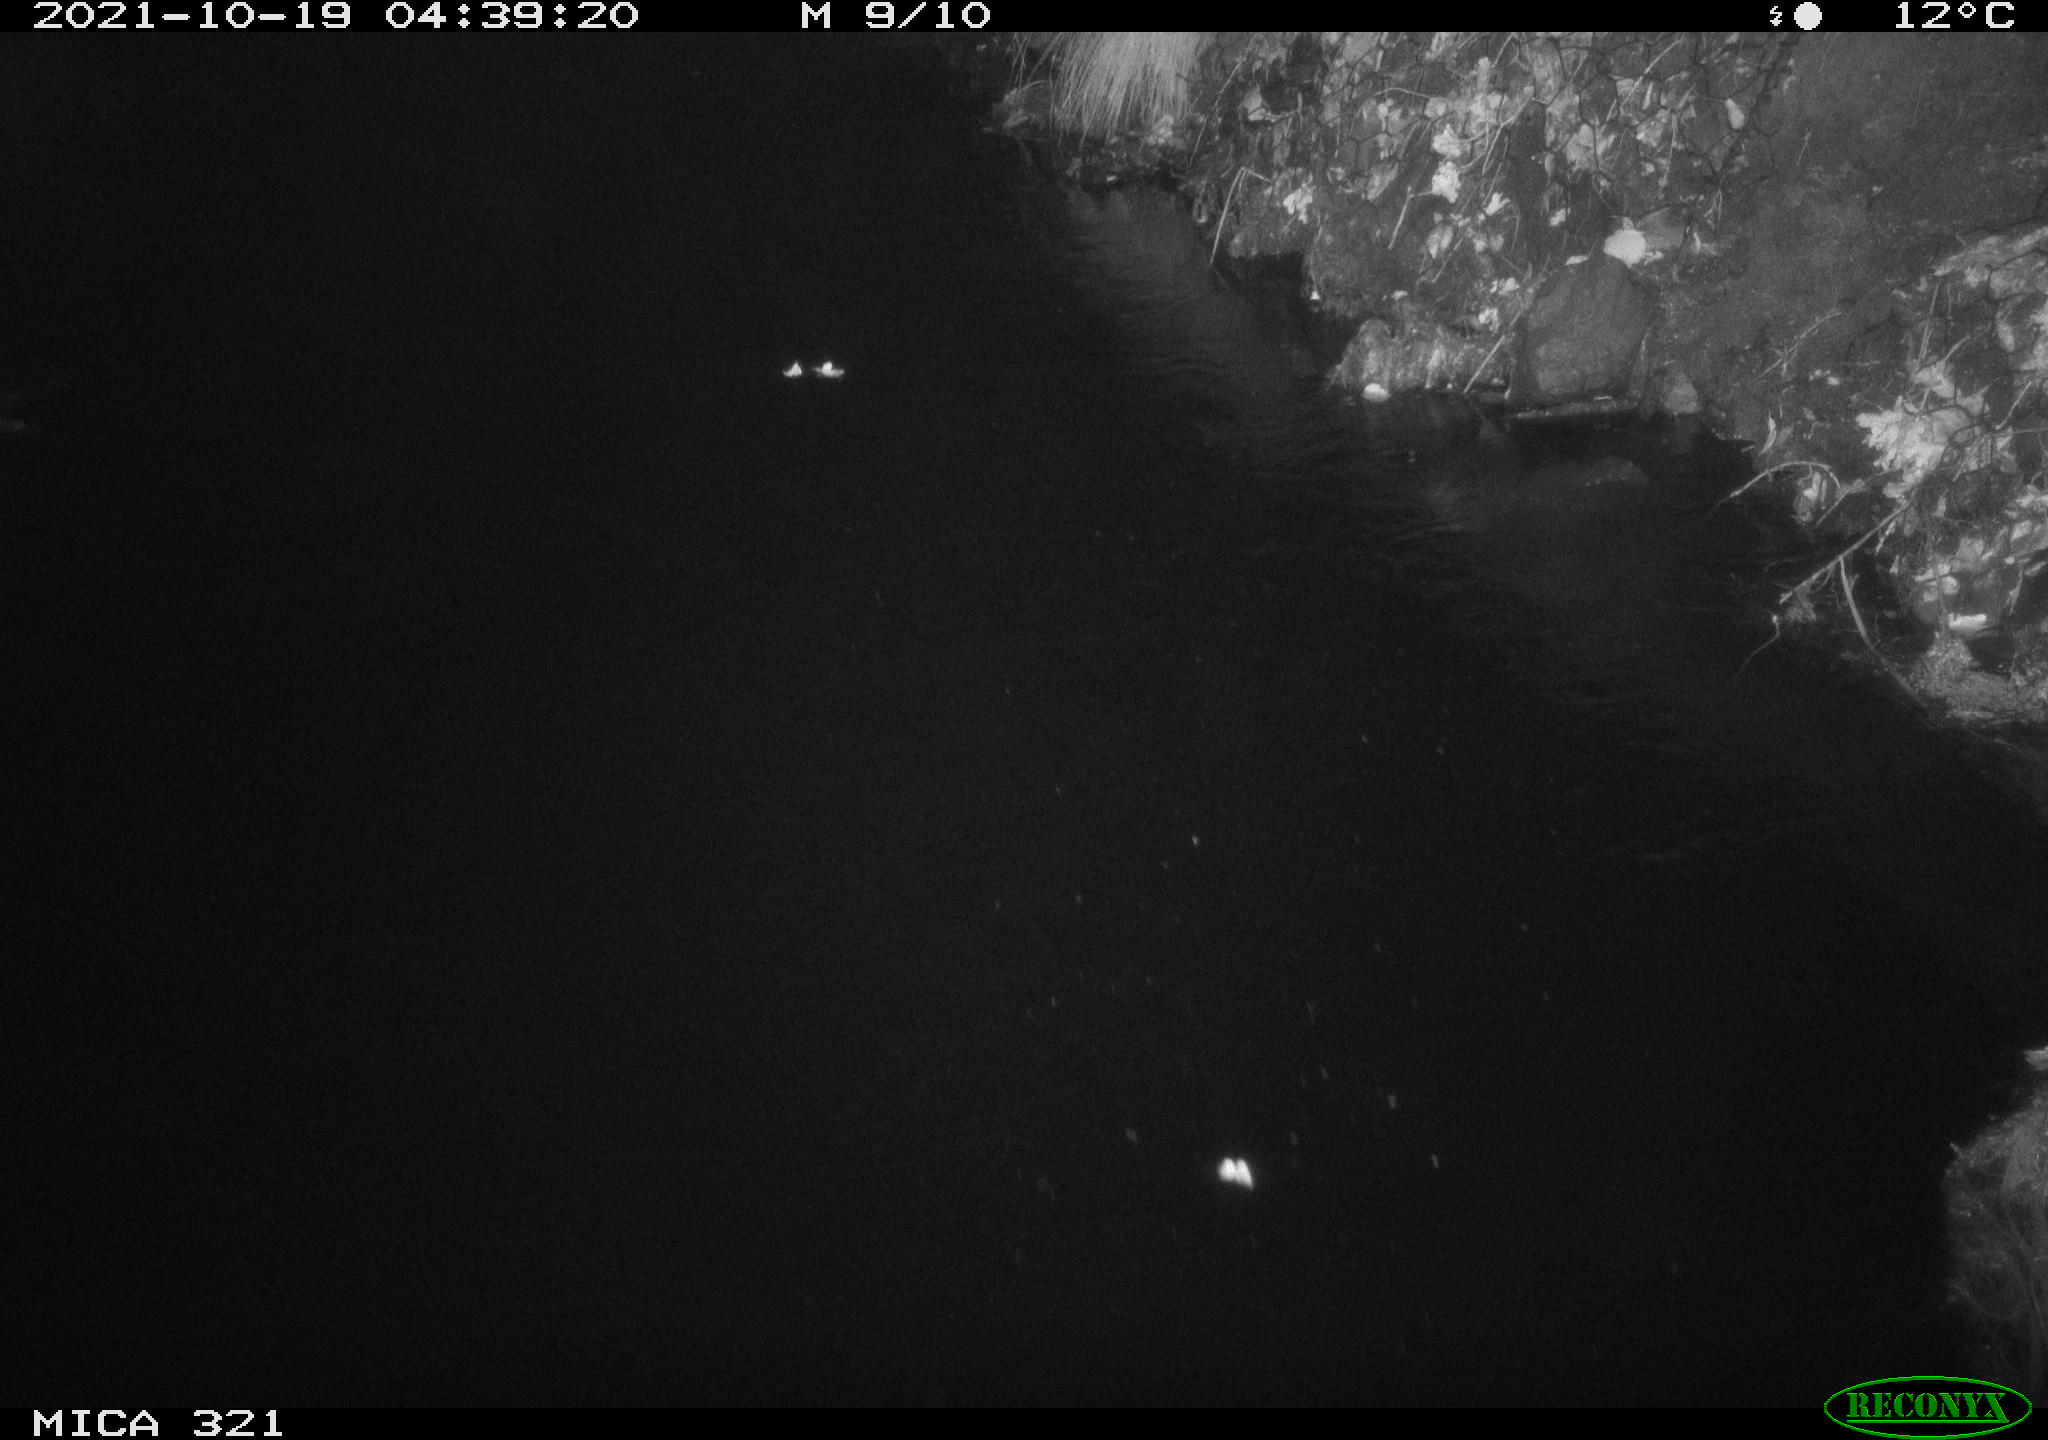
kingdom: Animalia
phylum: Chordata
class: Aves
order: Anseriformes
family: Anatidae
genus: Anas
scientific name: Anas platyrhynchos
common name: Mallard
